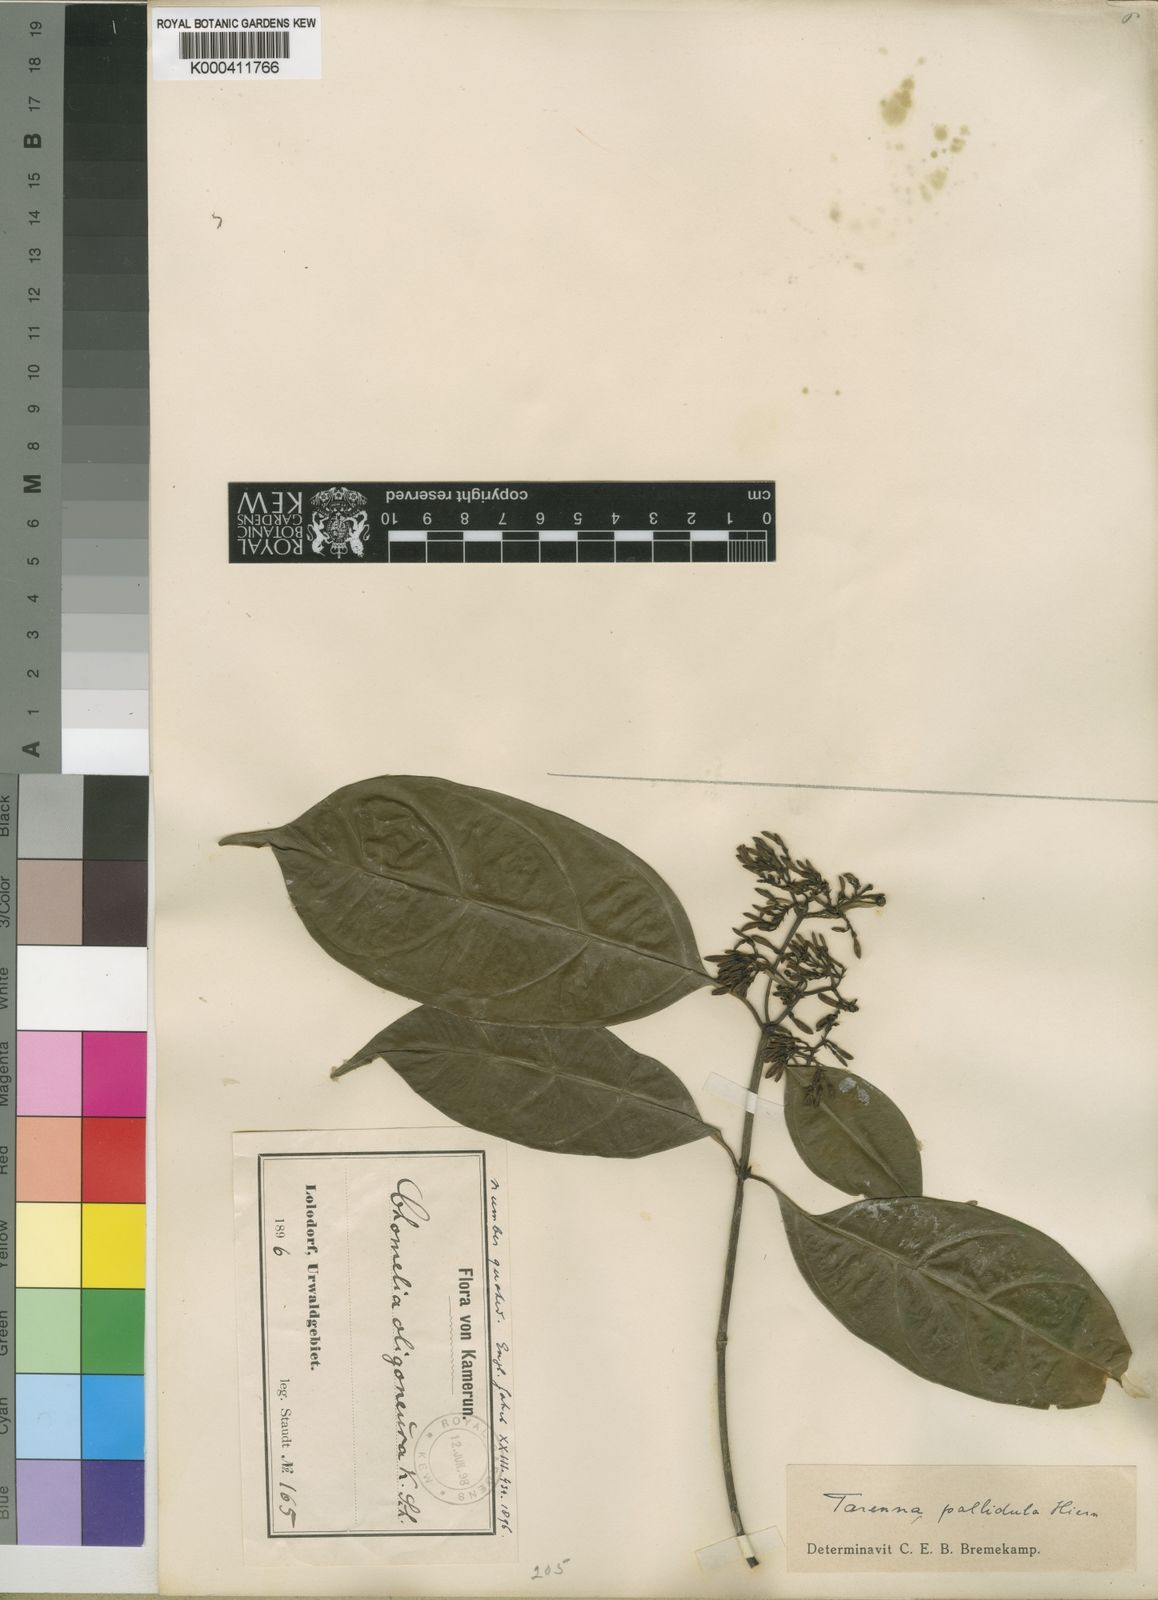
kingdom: Plantae
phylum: Tracheophyta
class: Magnoliopsida
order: Gentianales
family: Rubiaceae
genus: Tarenna
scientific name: Tarenna pallidula
